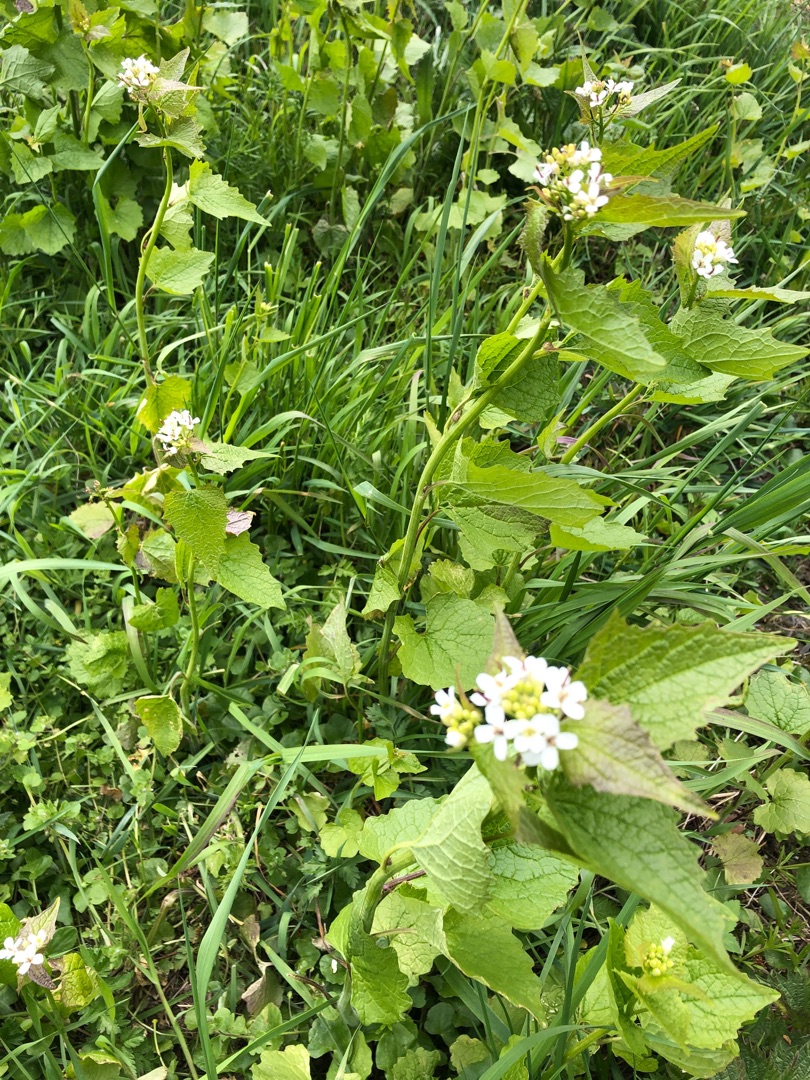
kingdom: Plantae
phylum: Tracheophyta
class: Magnoliopsida
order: Brassicales
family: Brassicaceae
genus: Alliaria
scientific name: Alliaria petiolata
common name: Løgkarse
